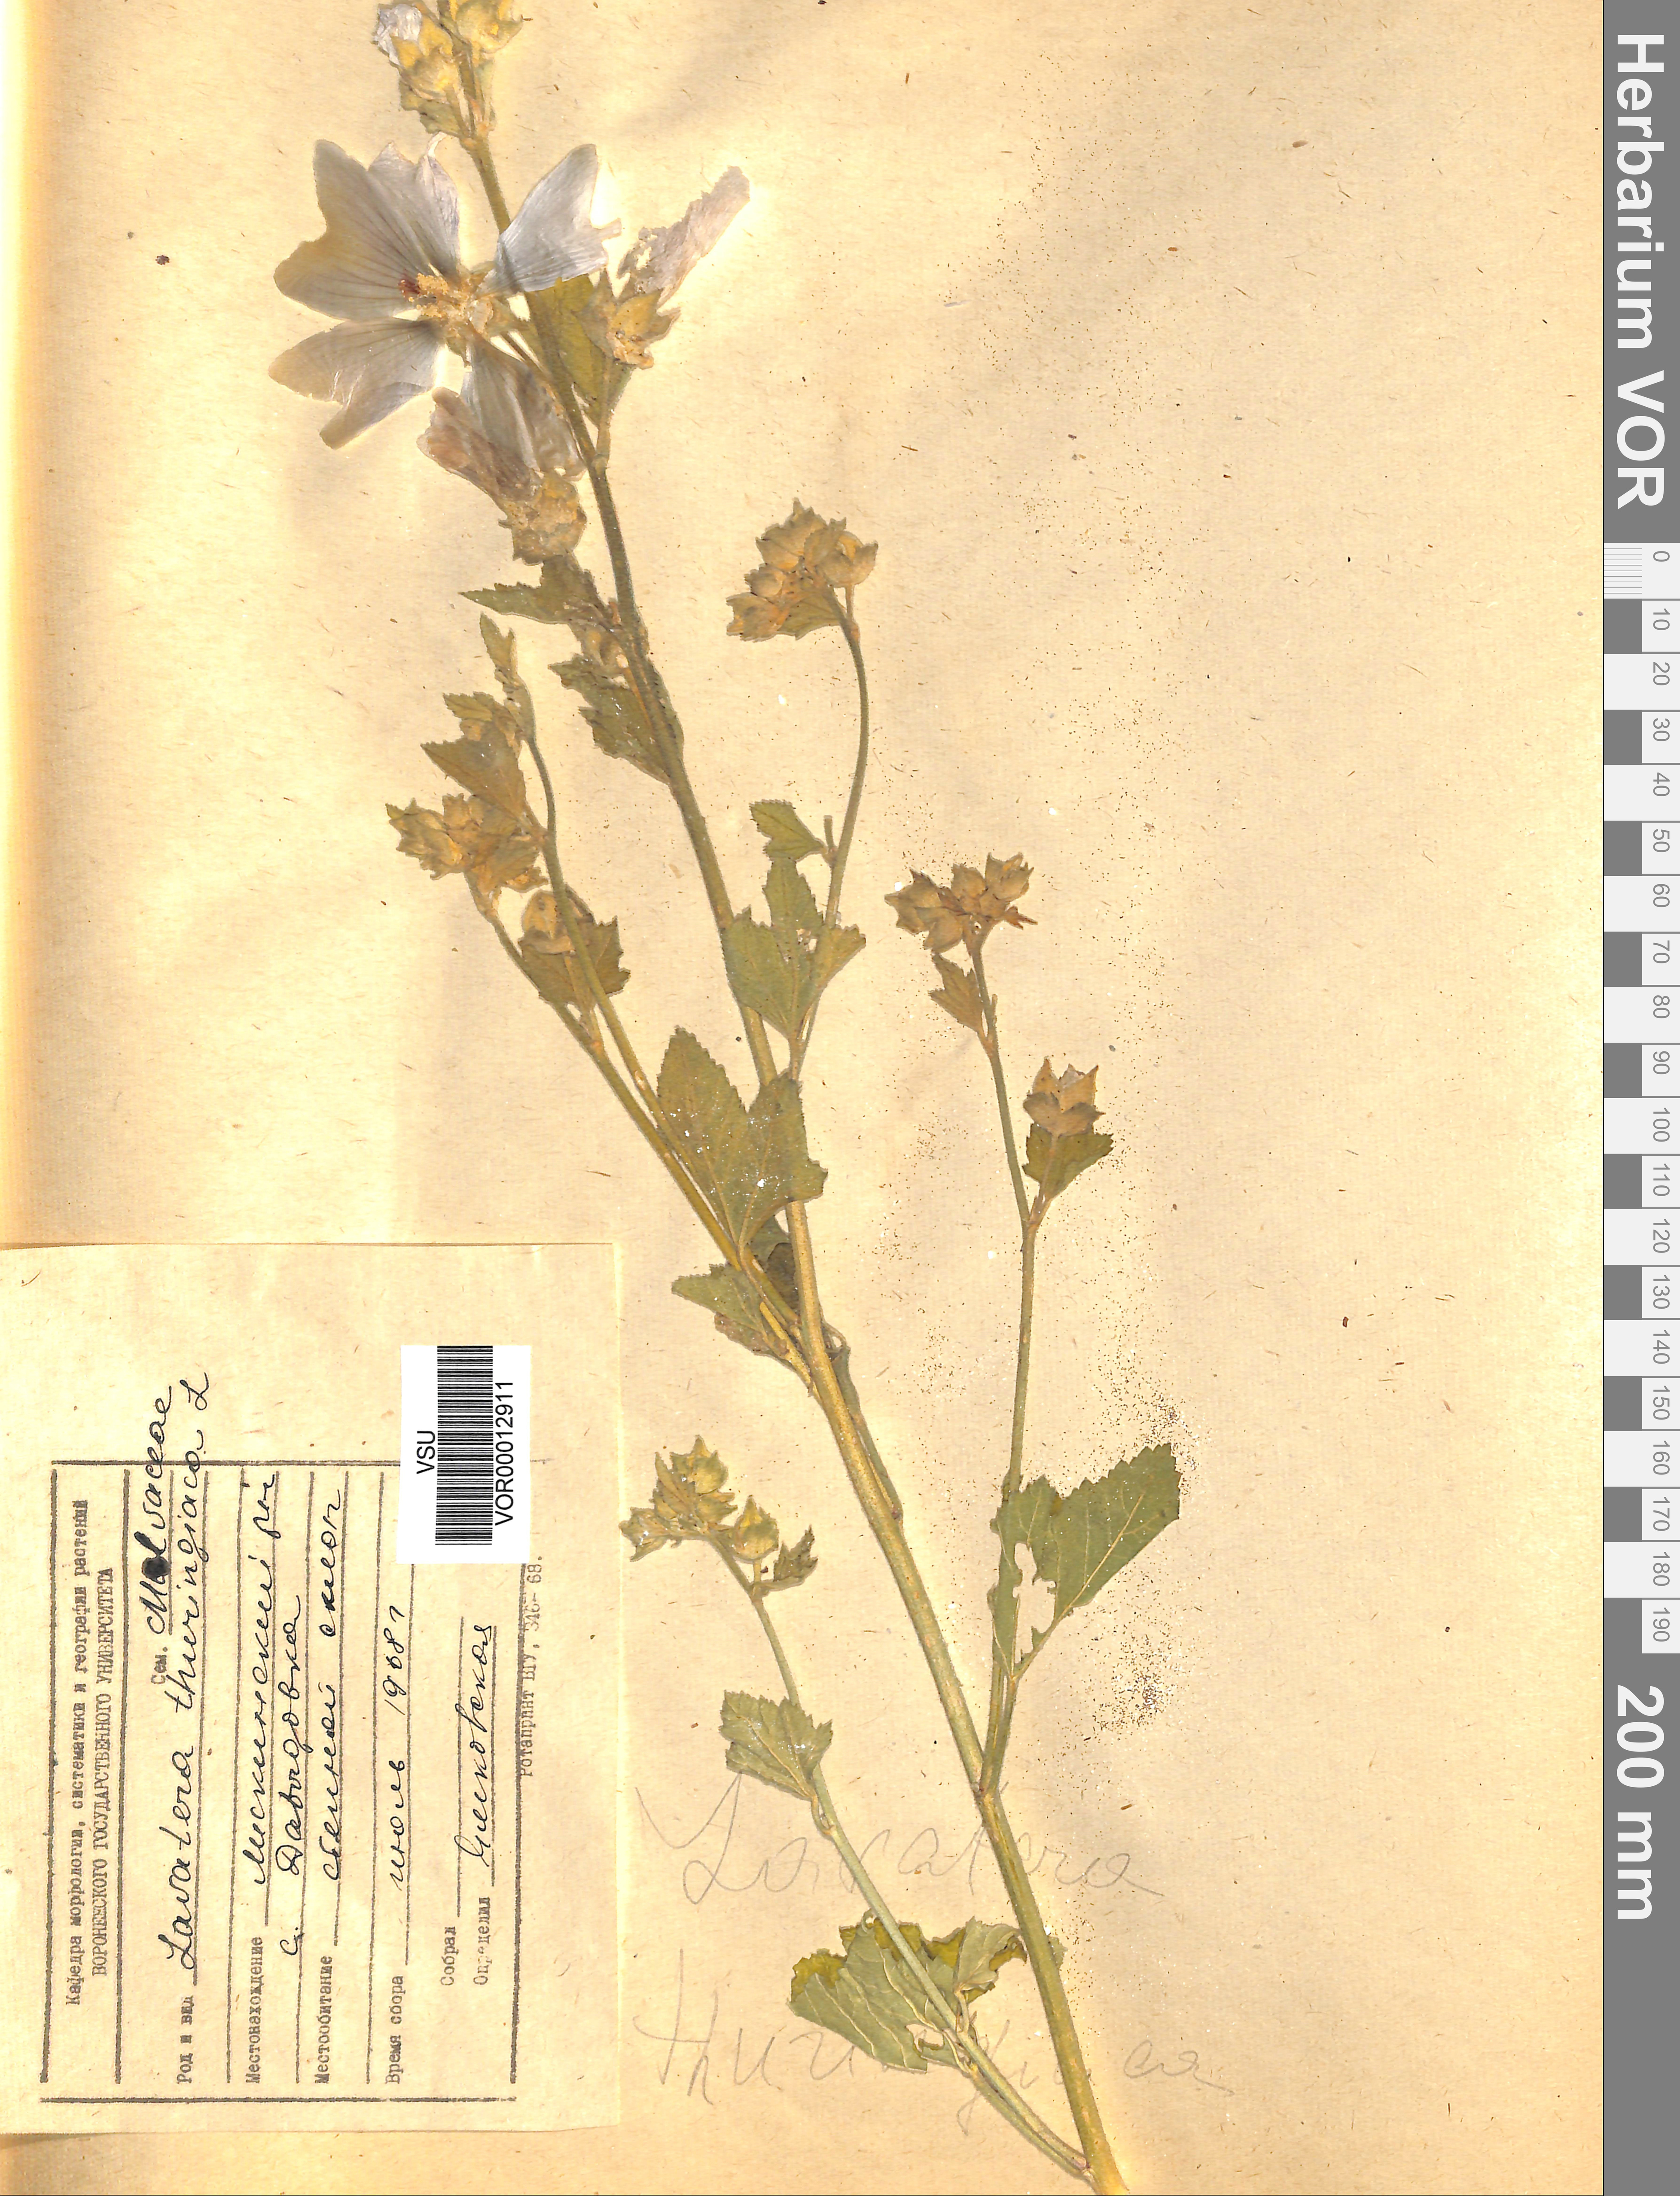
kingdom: Plantae
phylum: Tracheophyta
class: Magnoliopsida
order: Malvales
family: Malvaceae
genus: Malva
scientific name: Malva thuringiaca
